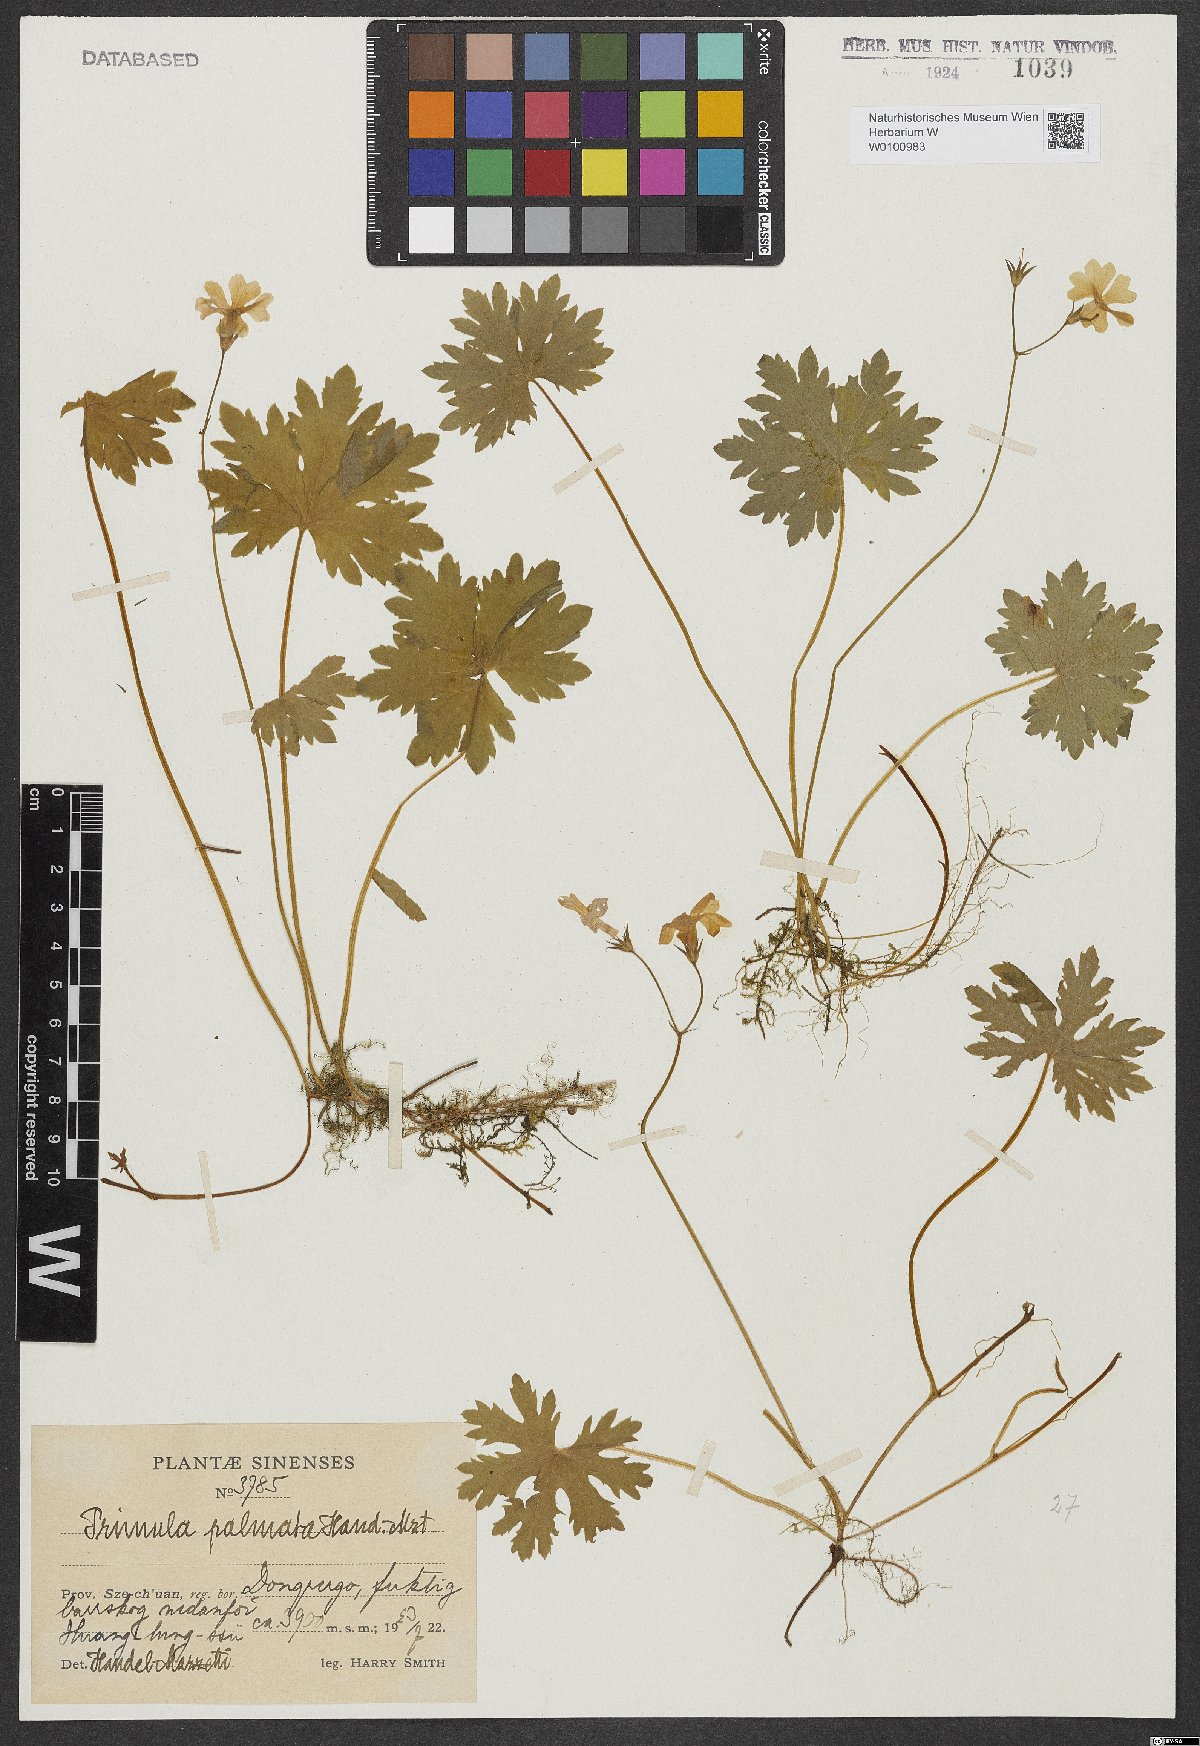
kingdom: Plantae
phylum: Tracheophyta
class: Magnoliopsida
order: Ericales
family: Primulaceae
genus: Primula
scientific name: Primula palmata
